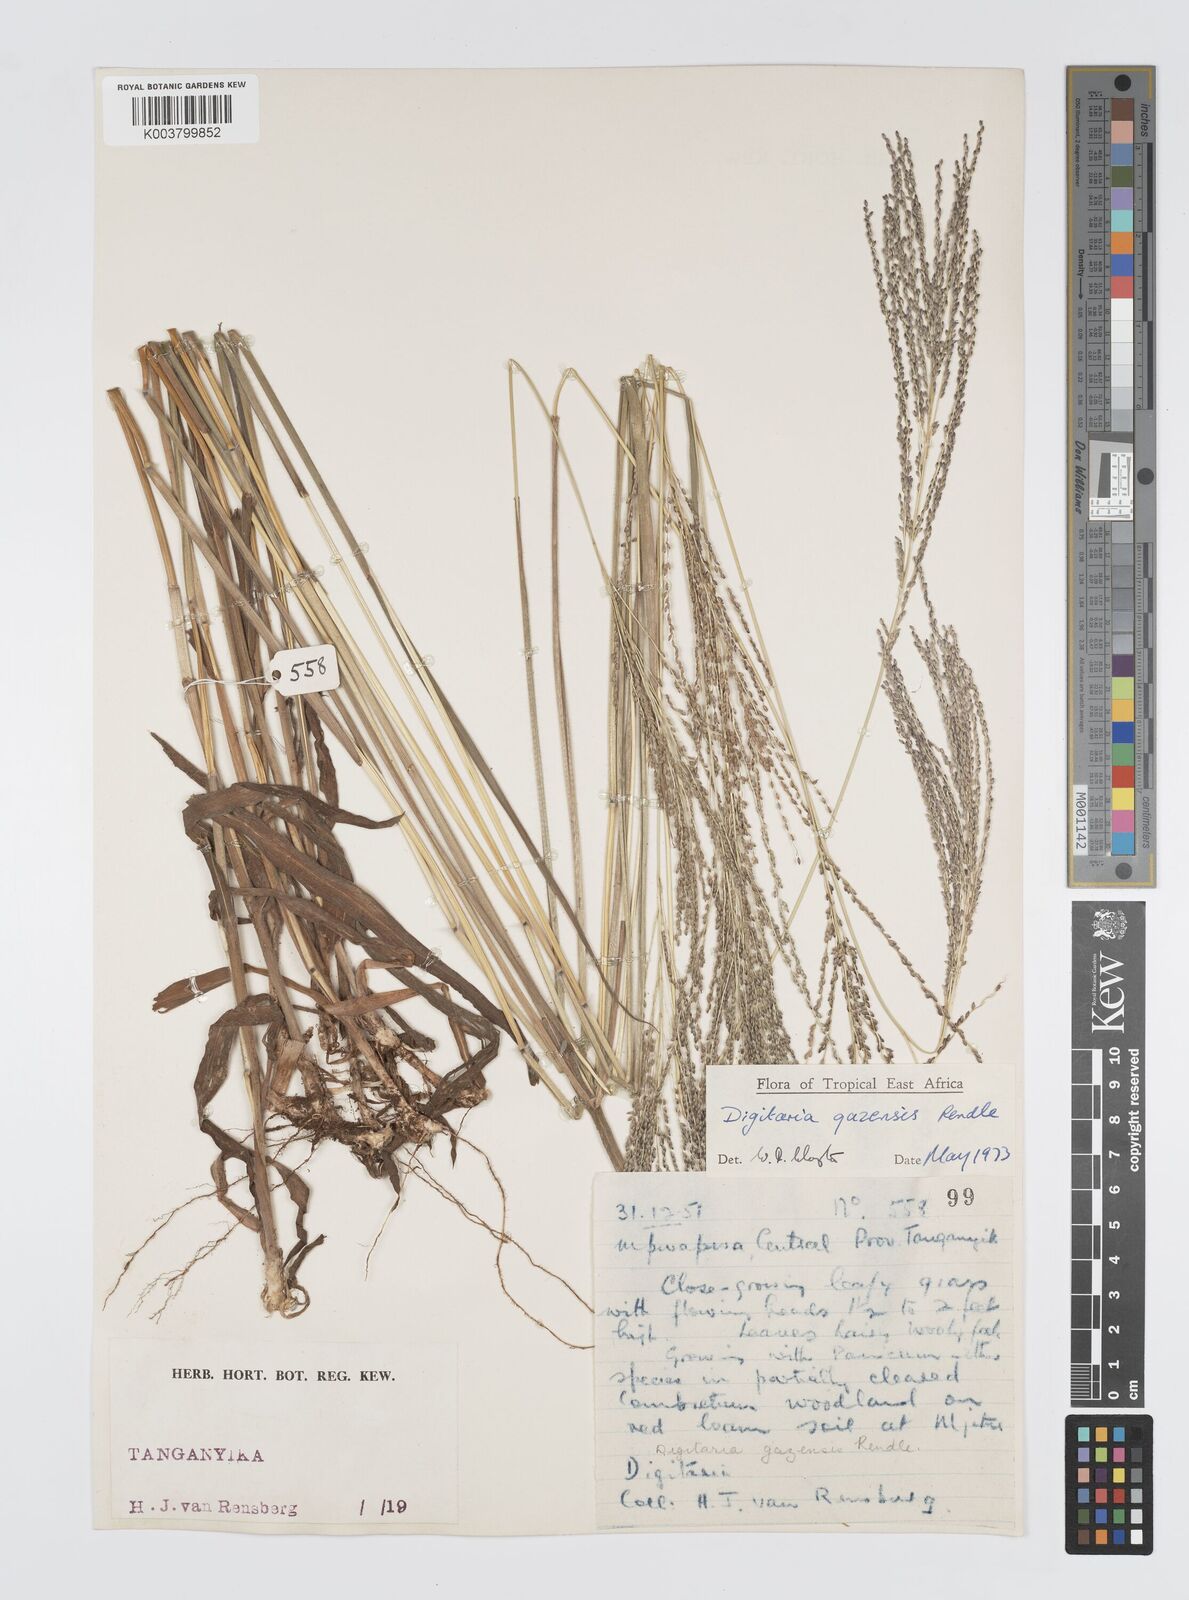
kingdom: Plantae
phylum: Tracheophyta
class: Liliopsida
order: Poales
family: Poaceae
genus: Digitaria
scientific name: Digitaria gazensis
